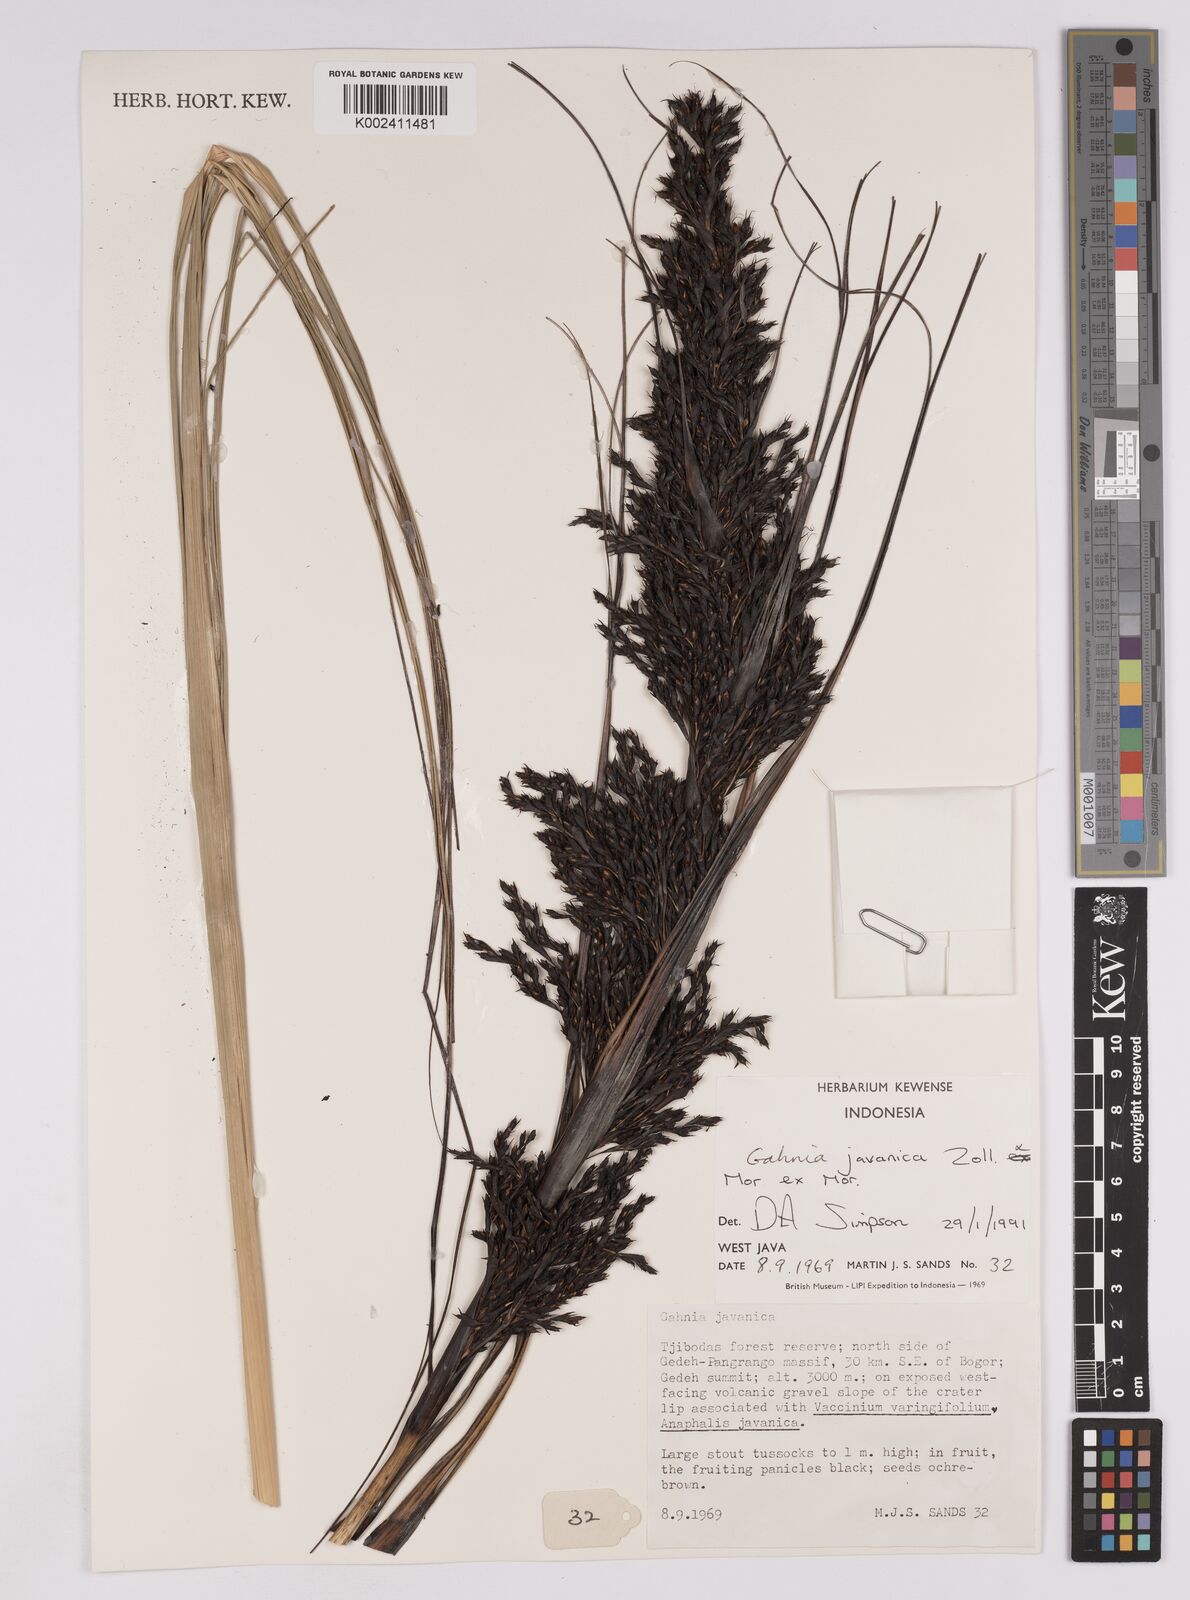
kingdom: Plantae
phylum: Tracheophyta
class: Liliopsida
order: Poales
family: Cyperaceae
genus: Gahnia
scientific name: Gahnia javanica
